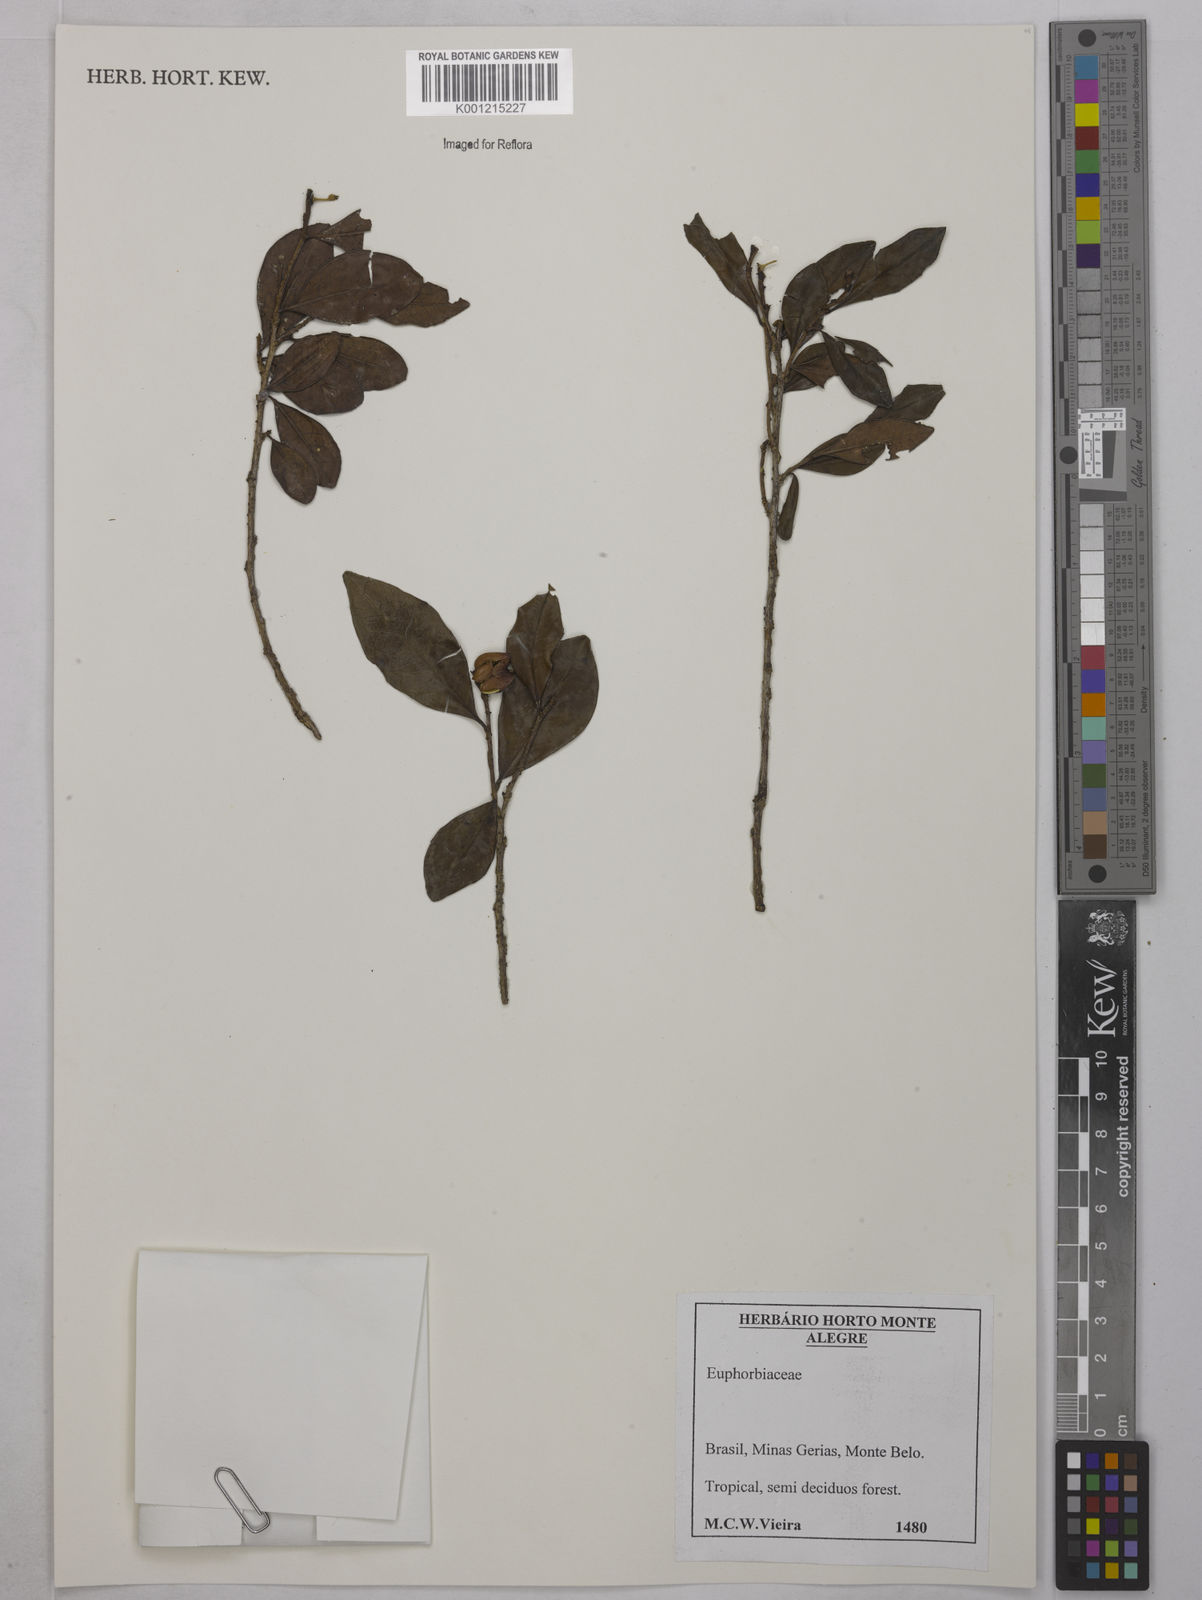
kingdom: Plantae
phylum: Tracheophyta
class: Magnoliopsida
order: Malpighiales
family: Euphorbiaceae
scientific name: Euphorbiaceae
